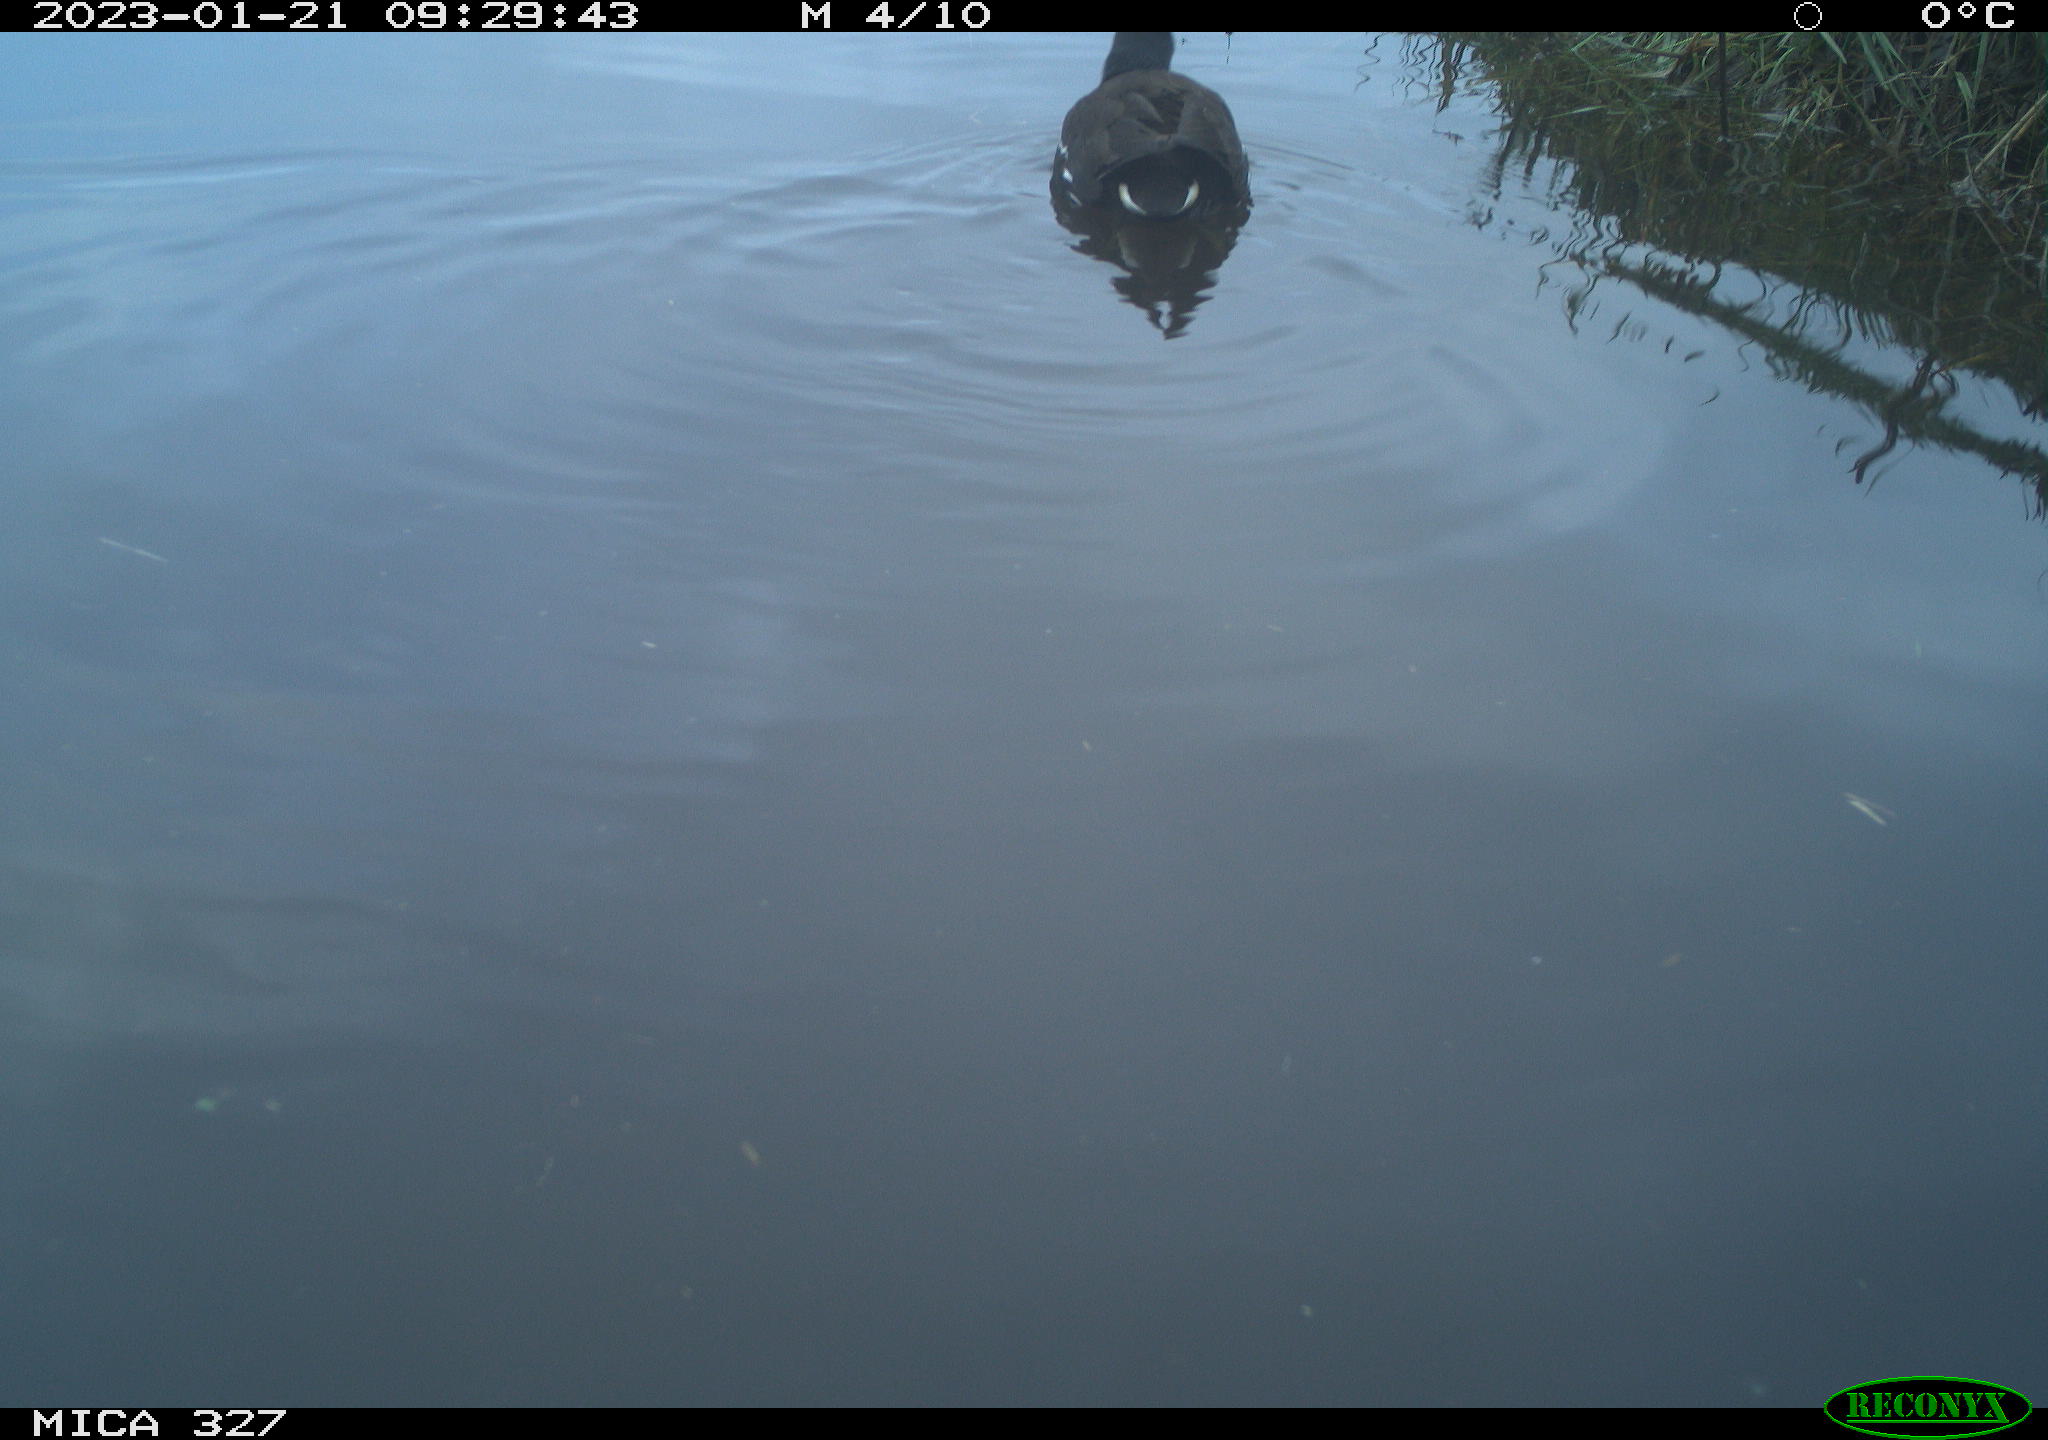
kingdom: Animalia
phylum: Chordata
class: Aves
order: Gruiformes
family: Rallidae
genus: Gallinula
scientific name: Gallinula chloropus
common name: Common moorhen
